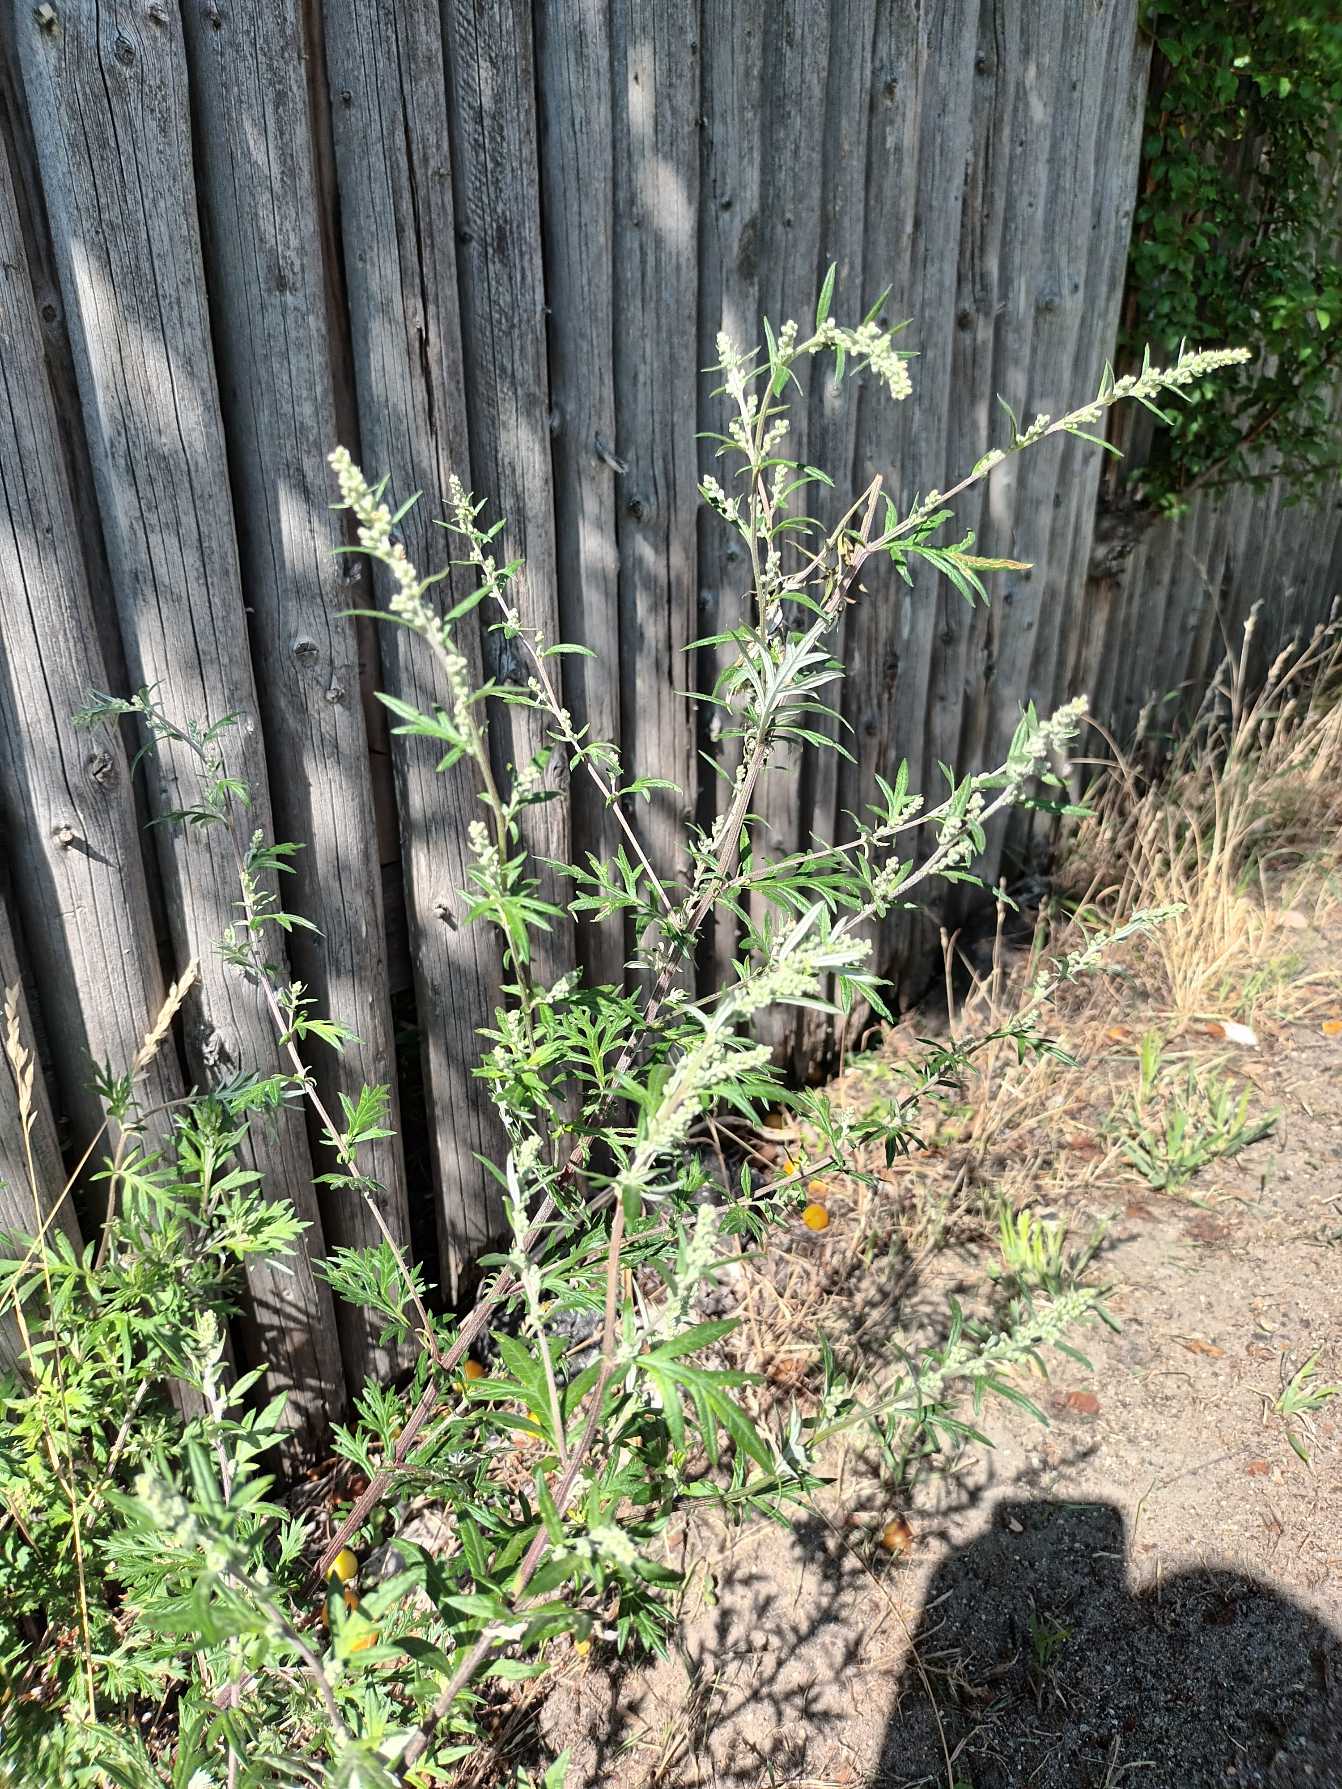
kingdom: Plantae
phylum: Tracheophyta
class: Magnoliopsida
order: Asterales
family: Asteraceae
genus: Artemisia
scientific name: Artemisia vulgaris
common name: Grå-bynke
